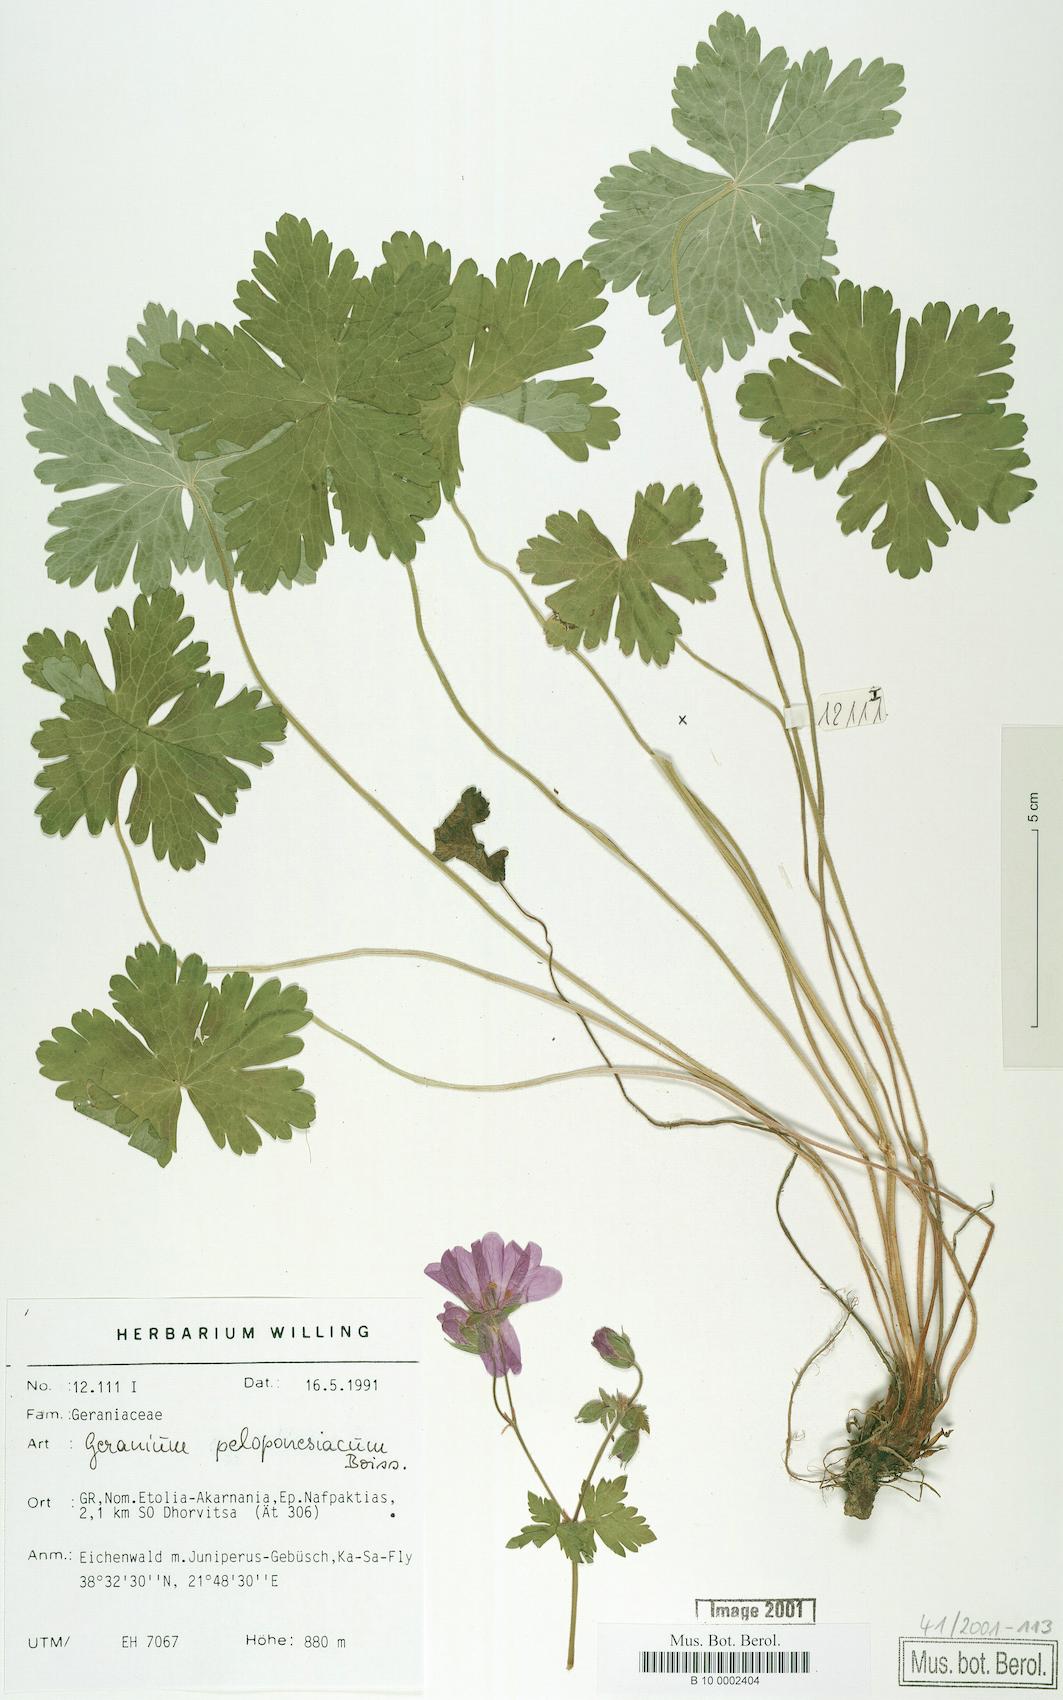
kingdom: Plantae
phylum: Tracheophyta
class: Magnoliopsida
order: Geraniales
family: Geraniaceae
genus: Geranium
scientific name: Geranium peloponnesiacum
